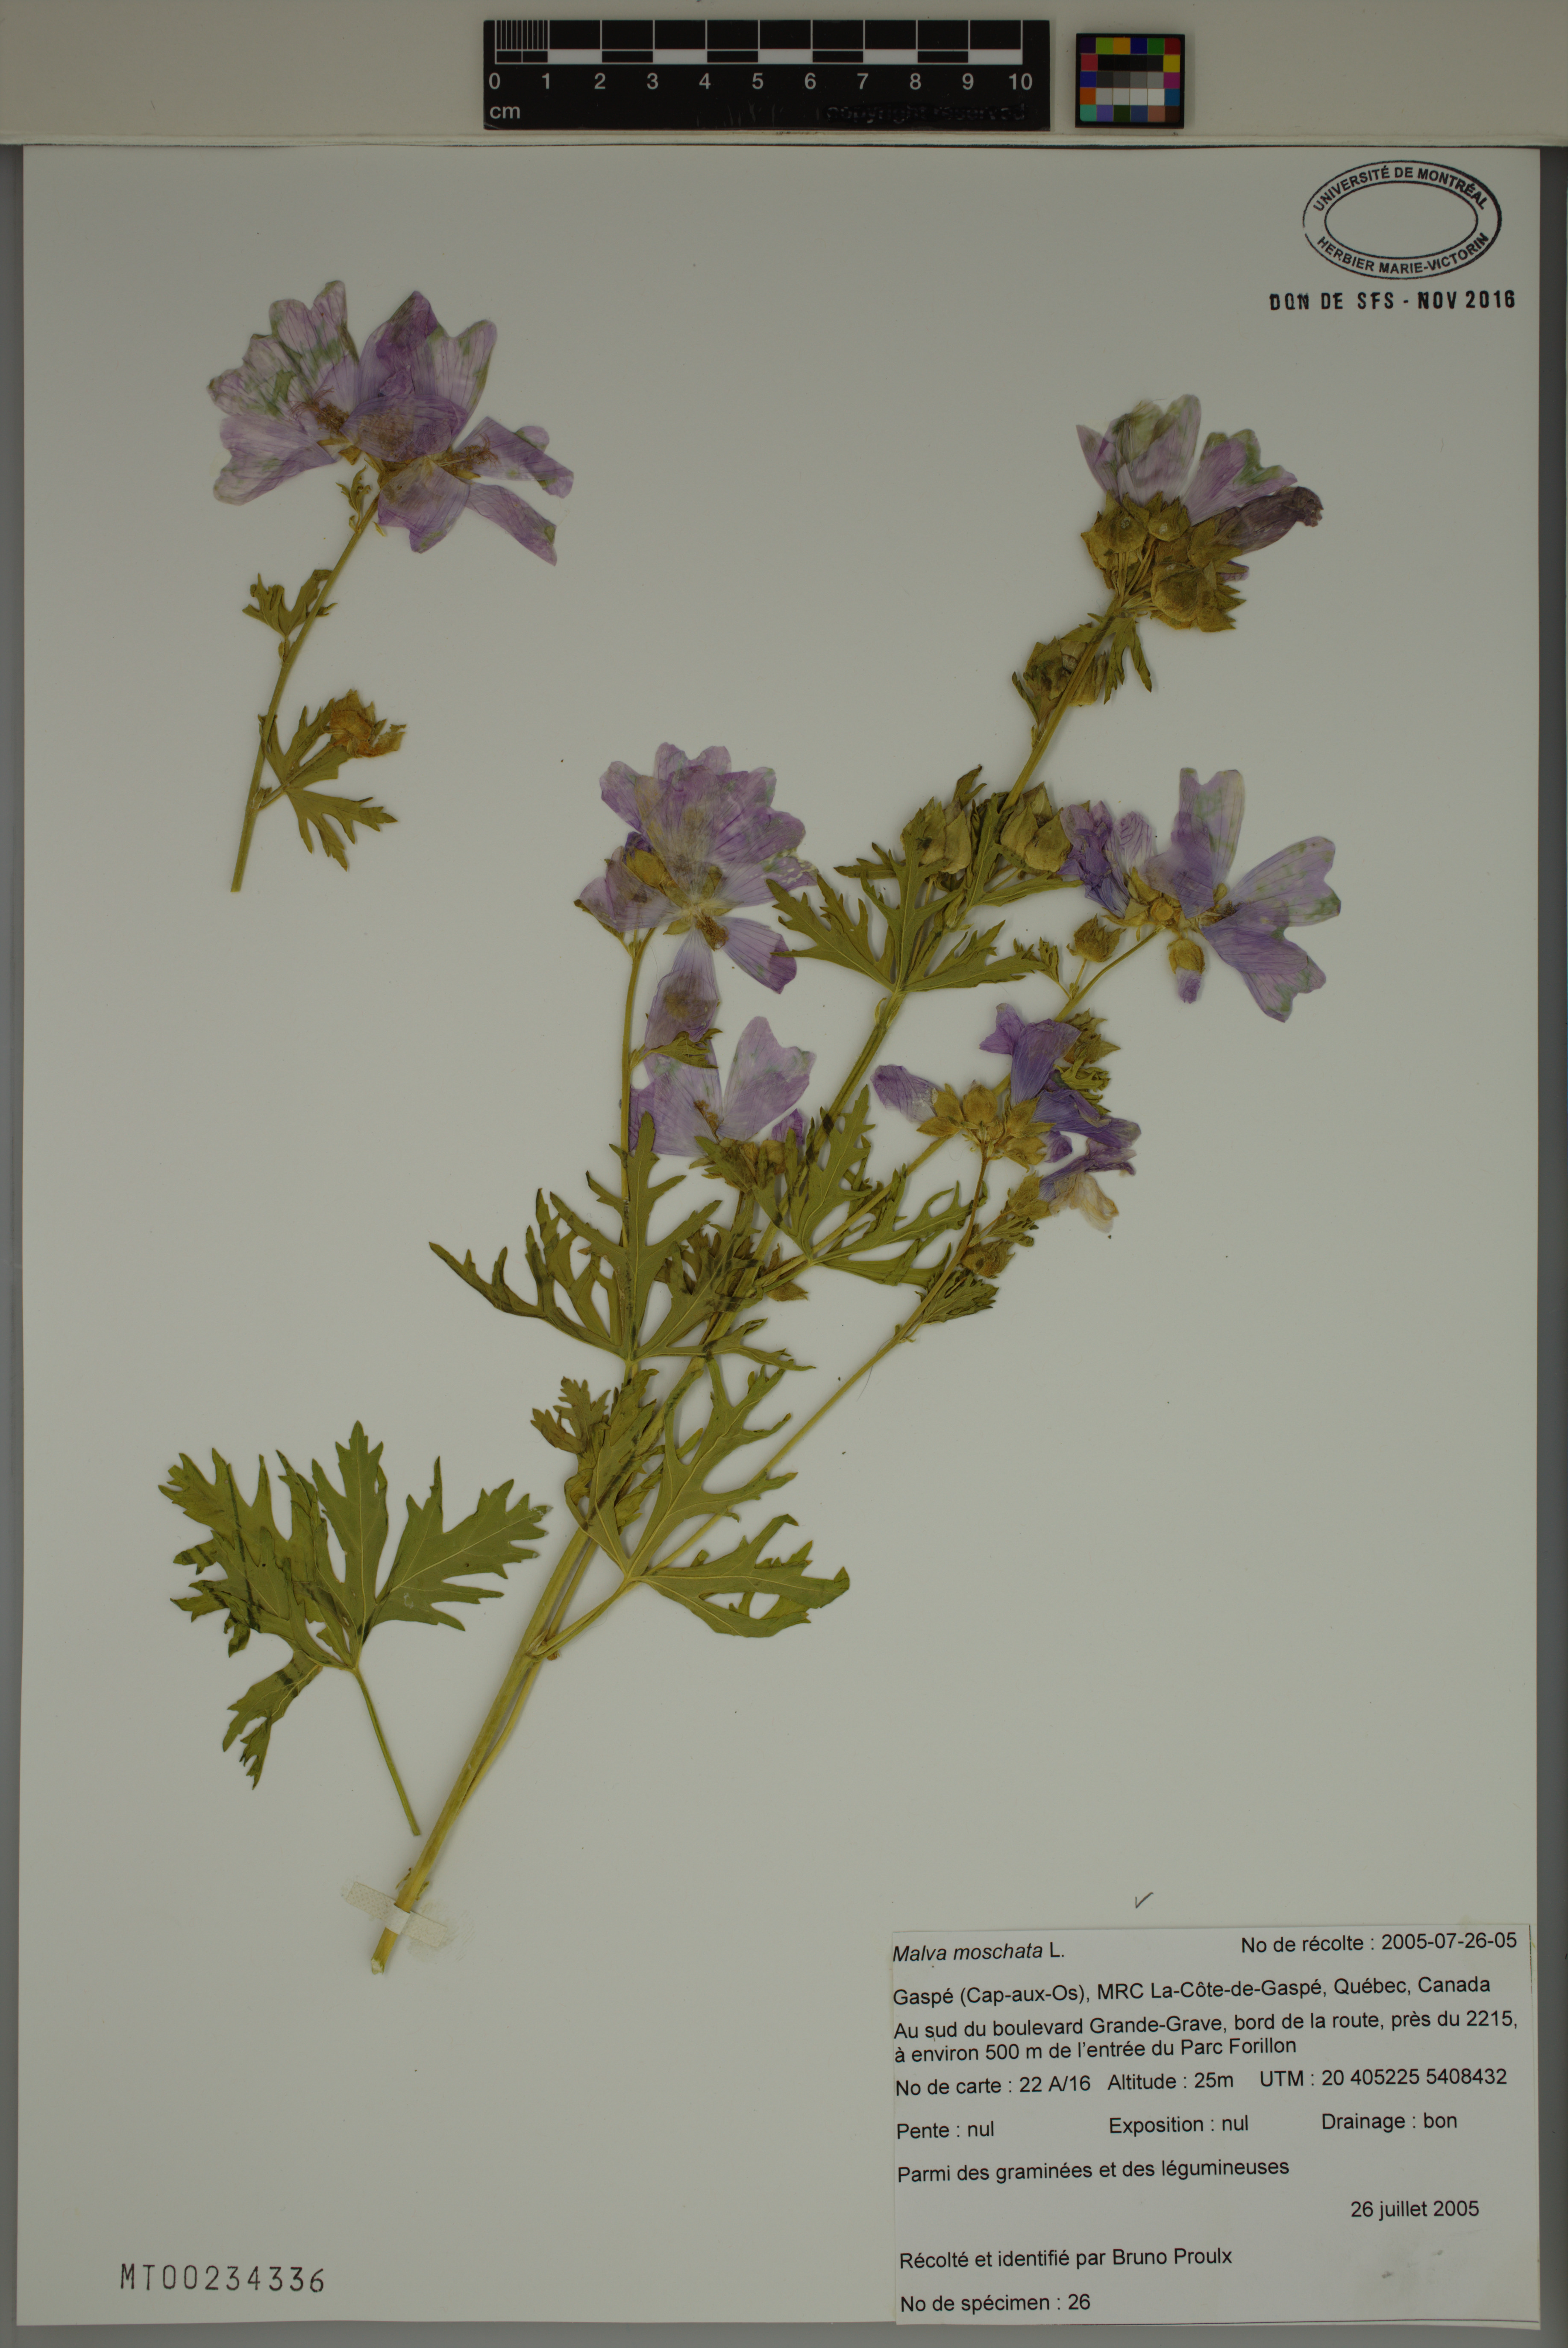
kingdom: Plantae
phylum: Tracheophyta
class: Magnoliopsida
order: Malvales
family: Malvaceae
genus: Malva
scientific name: Malva moschata
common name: Musk mallow
